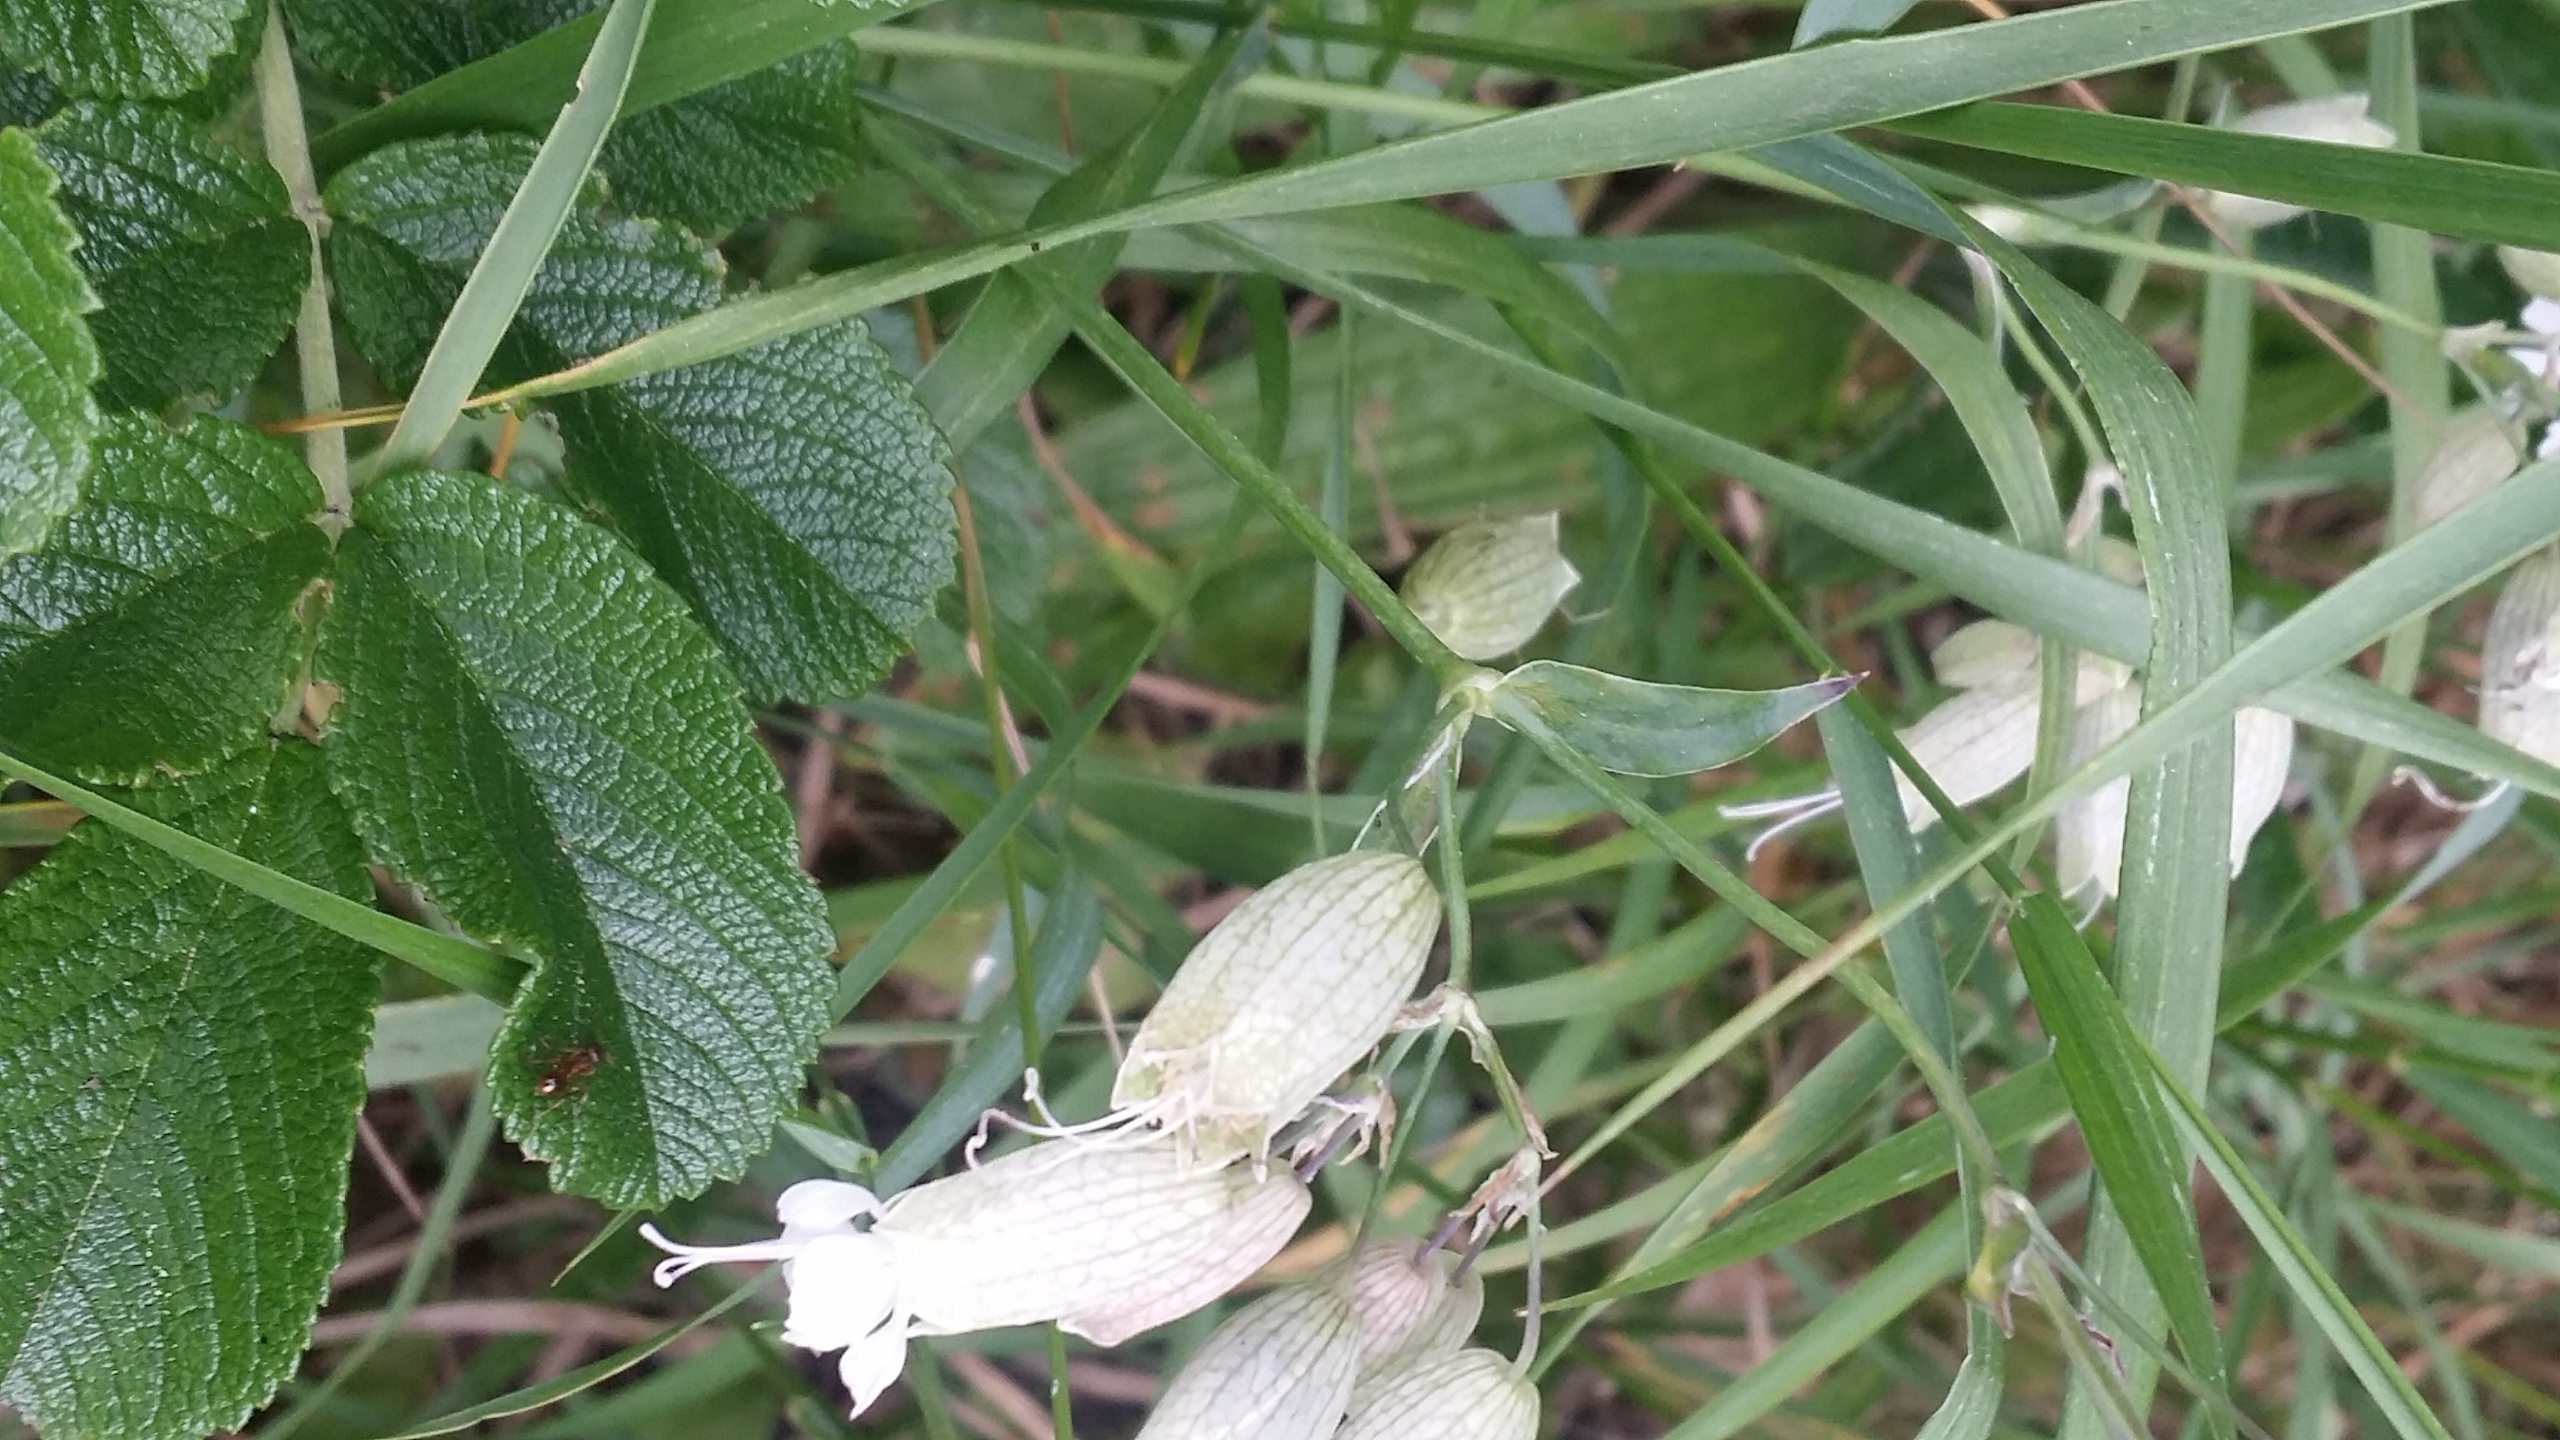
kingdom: Plantae
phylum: Tracheophyta
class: Magnoliopsida
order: Caryophyllales
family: Caryophyllaceae
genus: Silene
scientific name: Silene vulgaris
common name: Blæresmælde
